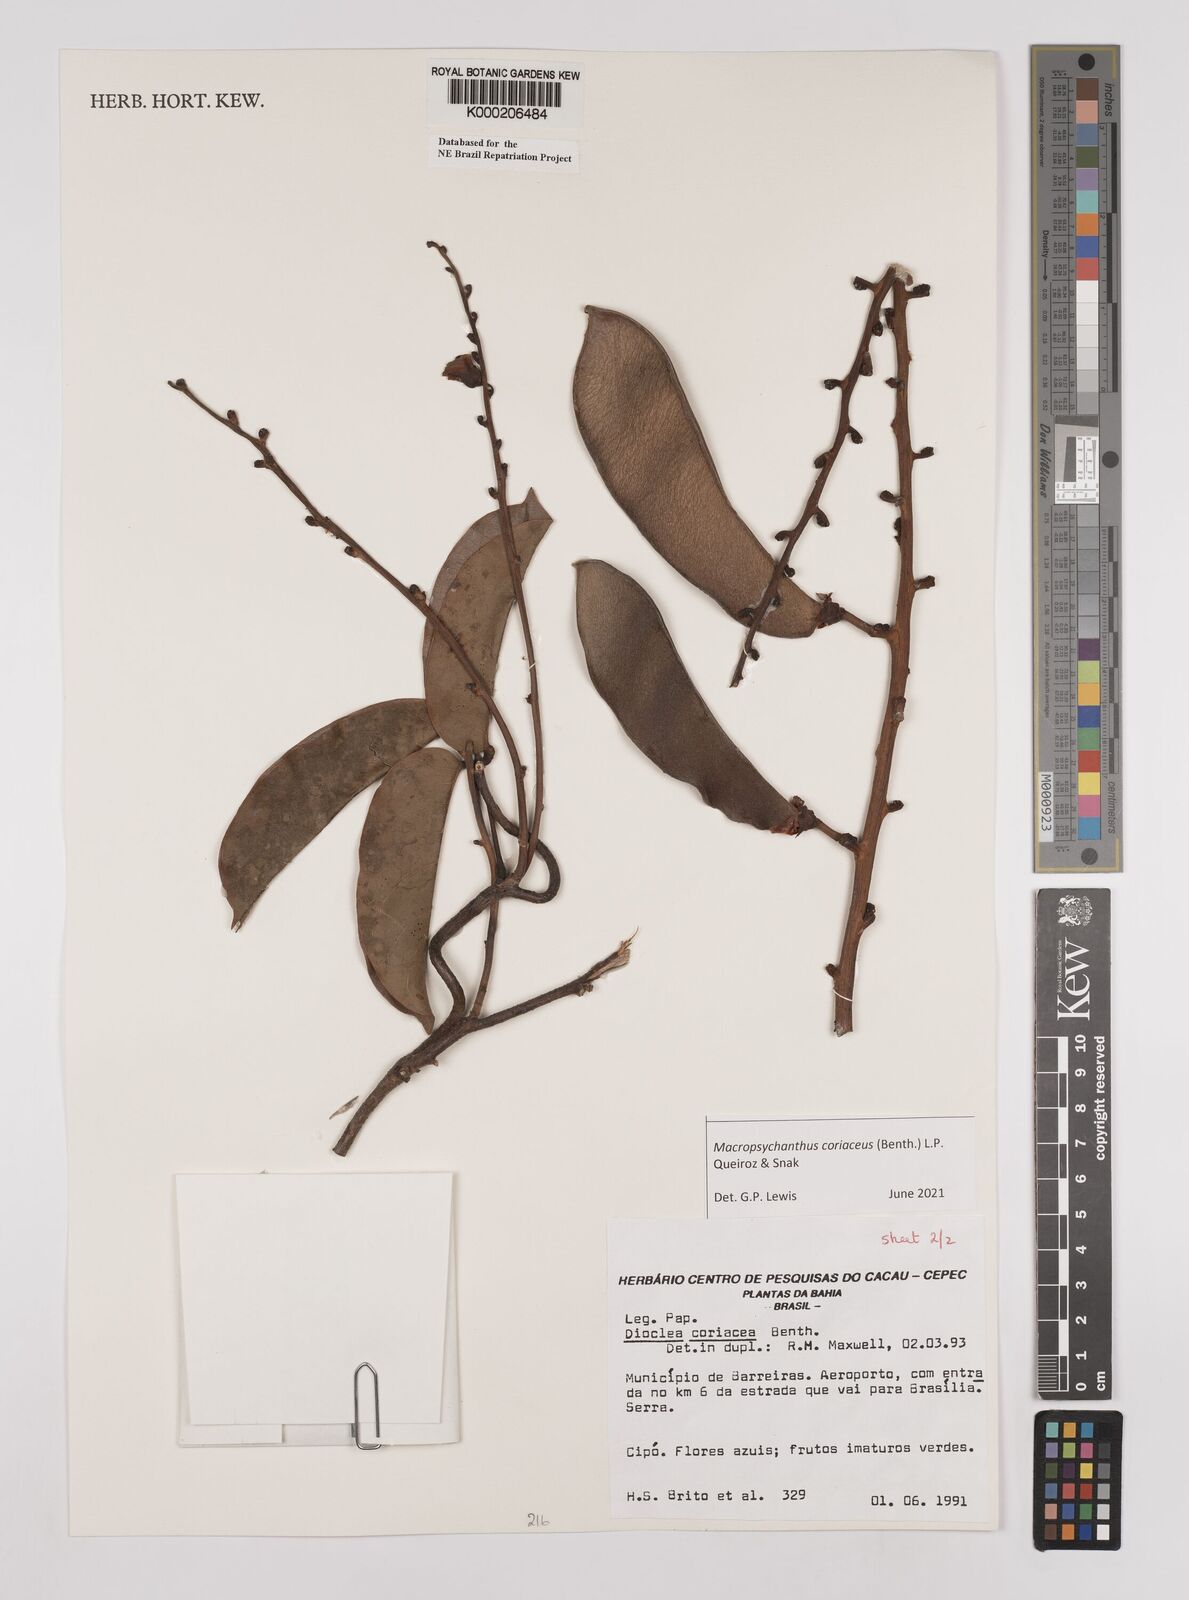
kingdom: Plantae
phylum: Tracheophyta
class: Magnoliopsida
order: Fabales
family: Fabaceae
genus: Macropsychanthus
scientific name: Macropsychanthus coriaceus
